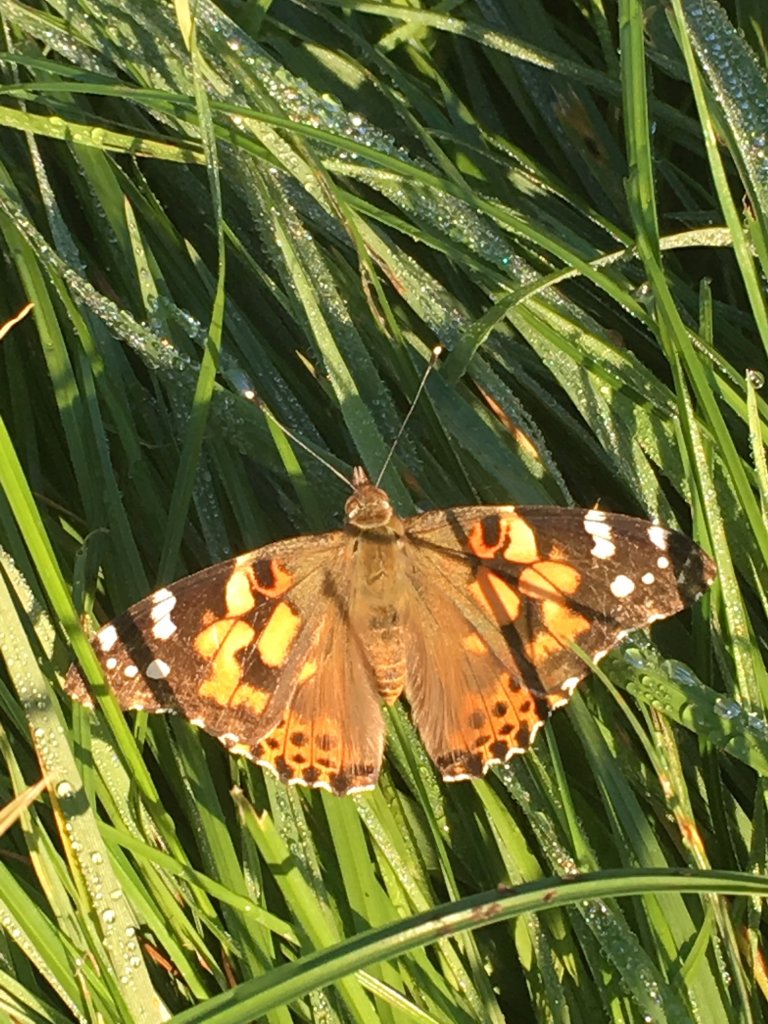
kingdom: Animalia
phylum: Arthropoda
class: Insecta
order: Lepidoptera
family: Nymphalidae
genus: Vanessa
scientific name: Vanessa cardui
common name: Painted Lady
